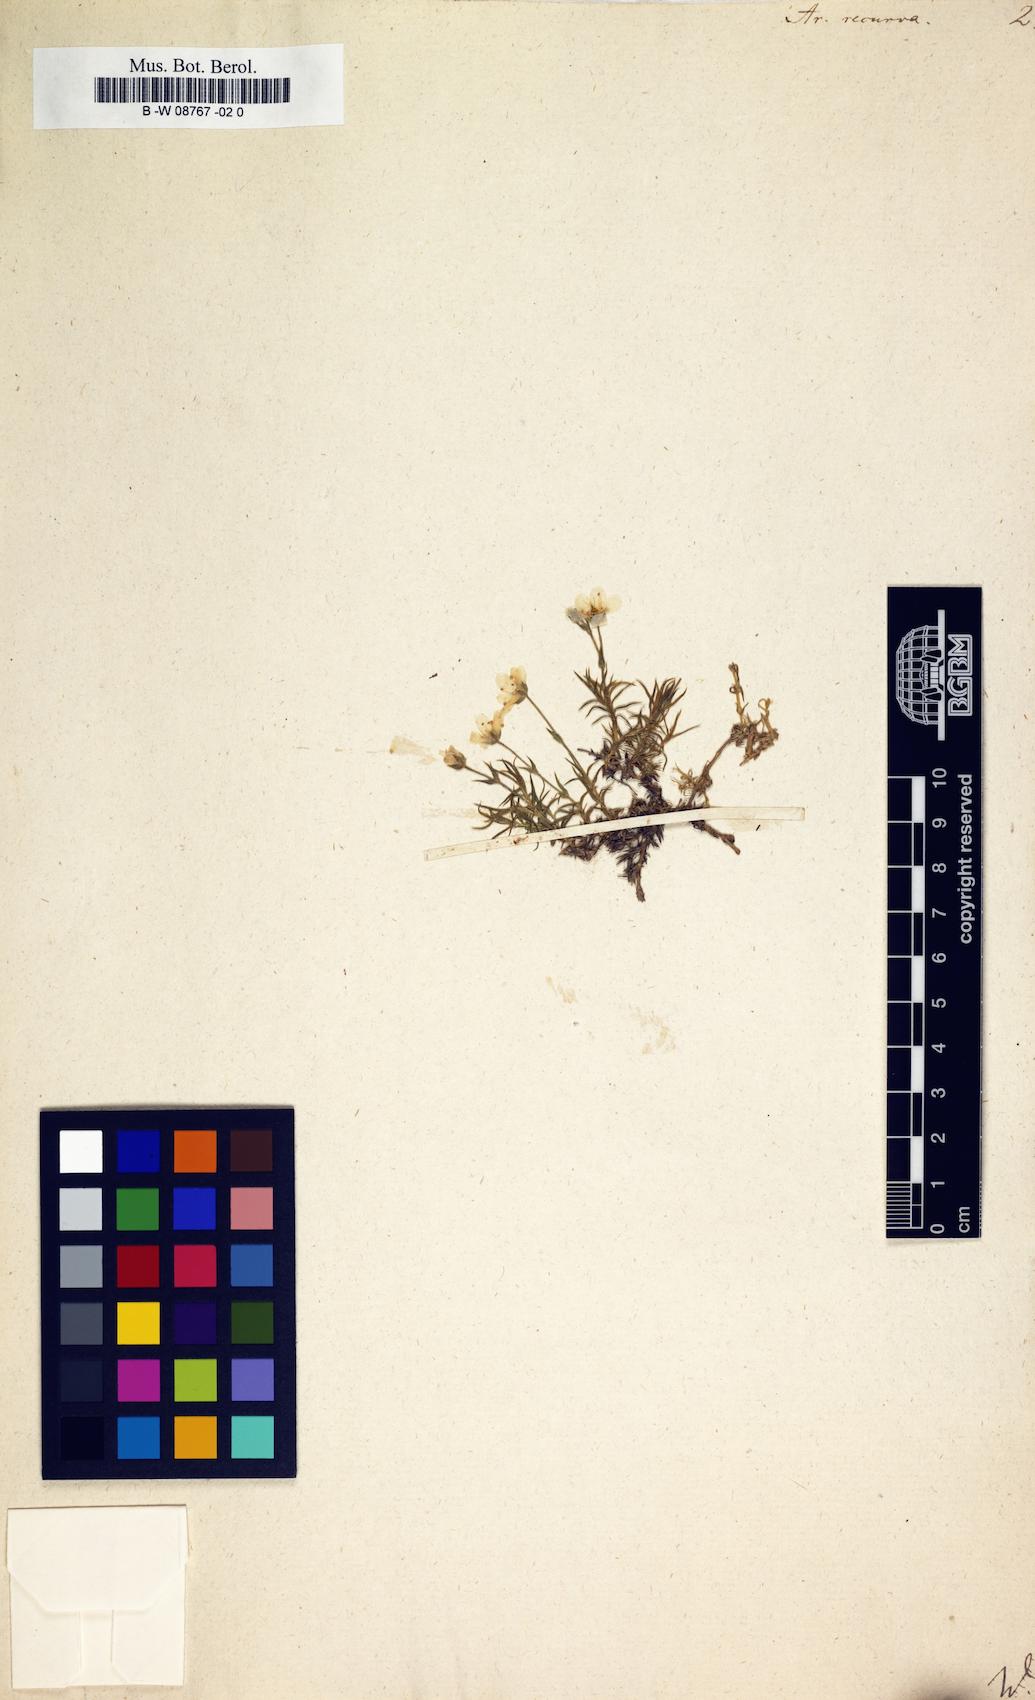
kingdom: Plantae
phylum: Tracheophyta
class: Magnoliopsida
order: Caryophyllales
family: Caryophyllaceae
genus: Minuartia
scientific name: Minuartia recurva
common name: Recurved sandwort
